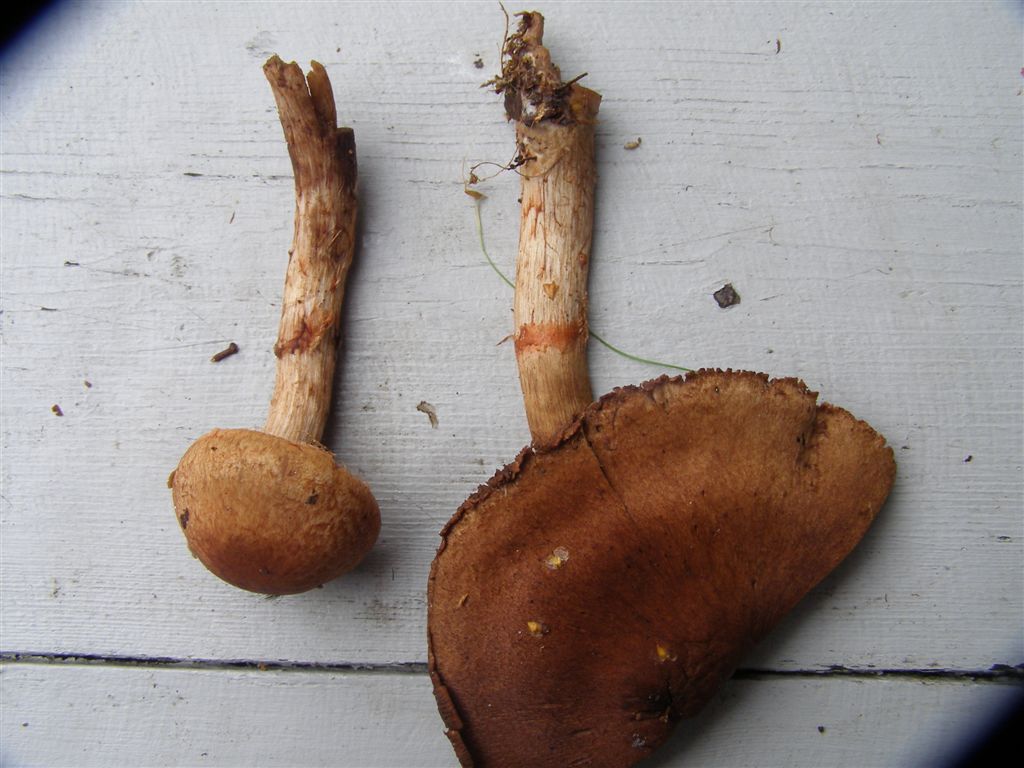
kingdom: Fungi
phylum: Basidiomycota
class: Agaricomycetes
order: Agaricales
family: Cortinariaceae
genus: Cortinarius
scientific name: Cortinarius armillatus
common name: cinnoberbæltet slørhat
